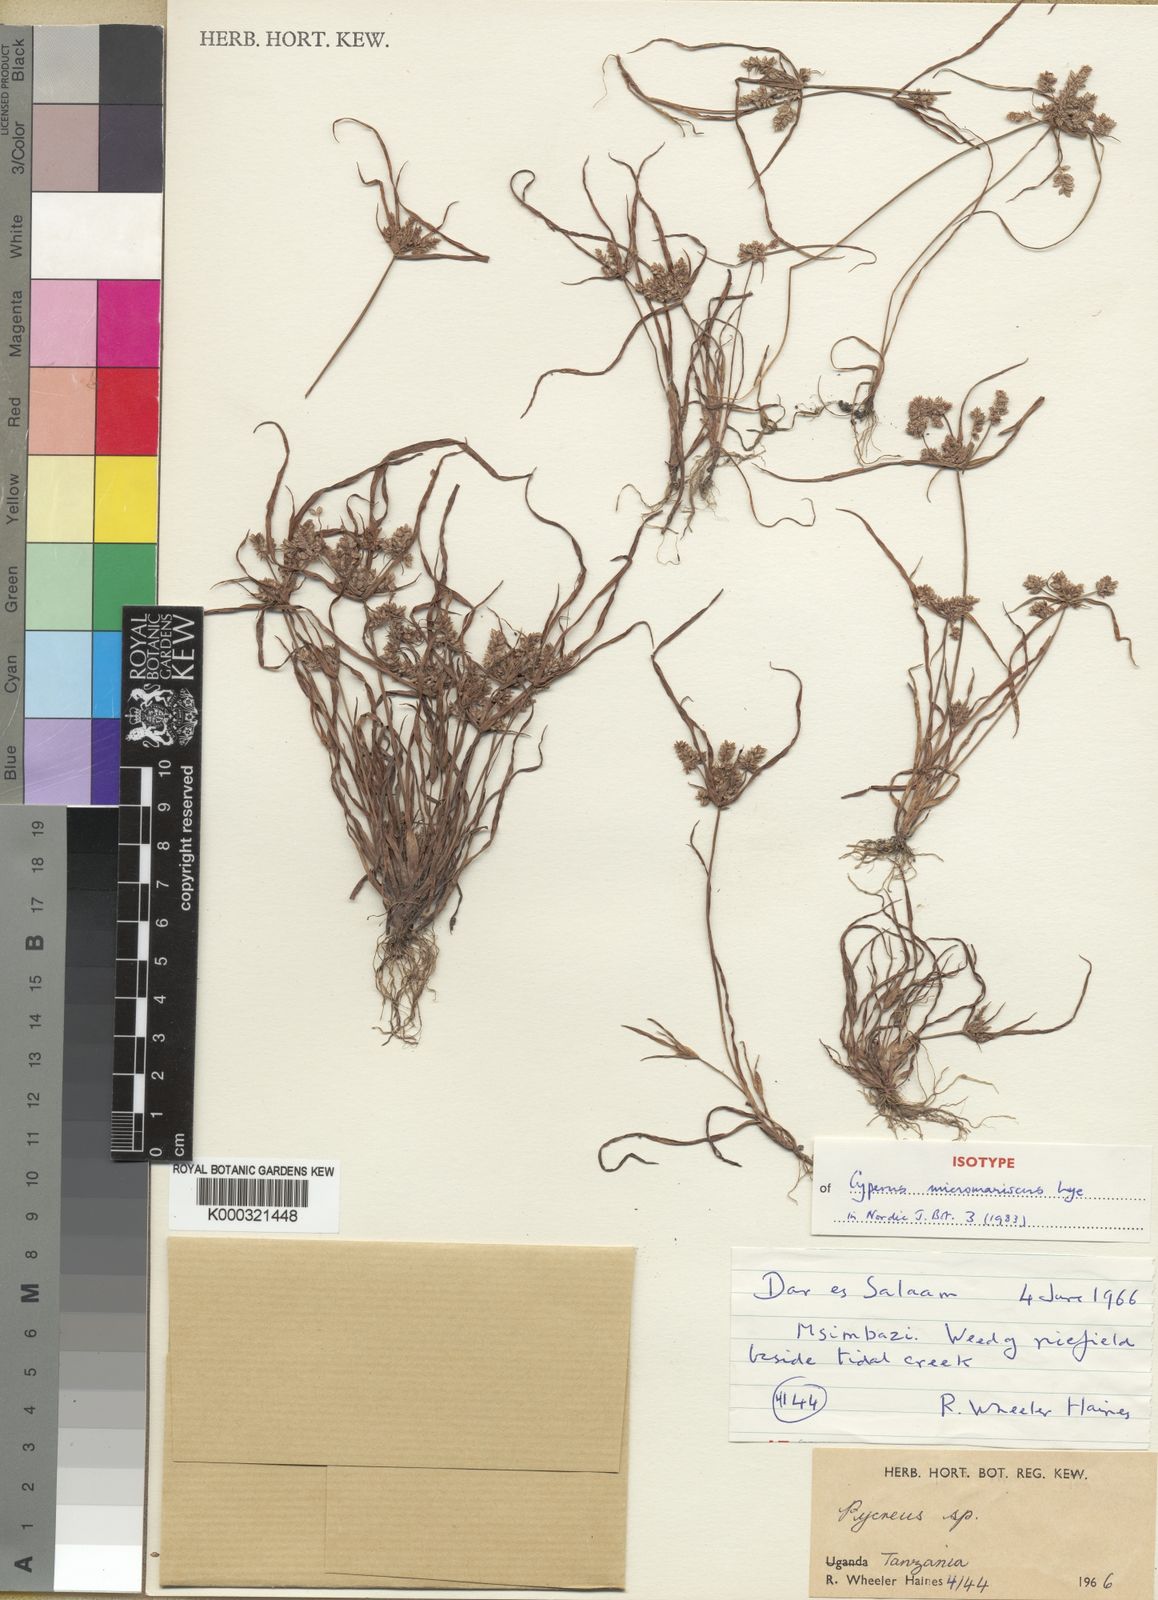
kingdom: Plantae
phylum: Tracheophyta
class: Liliopsida
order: Poales
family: Cyperaceae
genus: Cyperus
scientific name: Cyperus micromariscus
